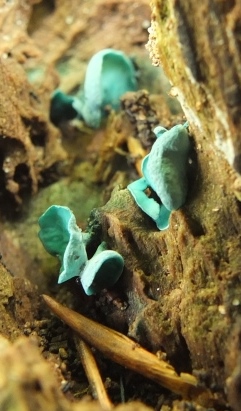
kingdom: Fungi
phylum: Ascomycota
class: Leotiomycetes
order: Helotiales
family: Chlorociboriaceae
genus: Chlorociboria
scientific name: Chlorociboria aeruginascens
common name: almindelig grønskive
